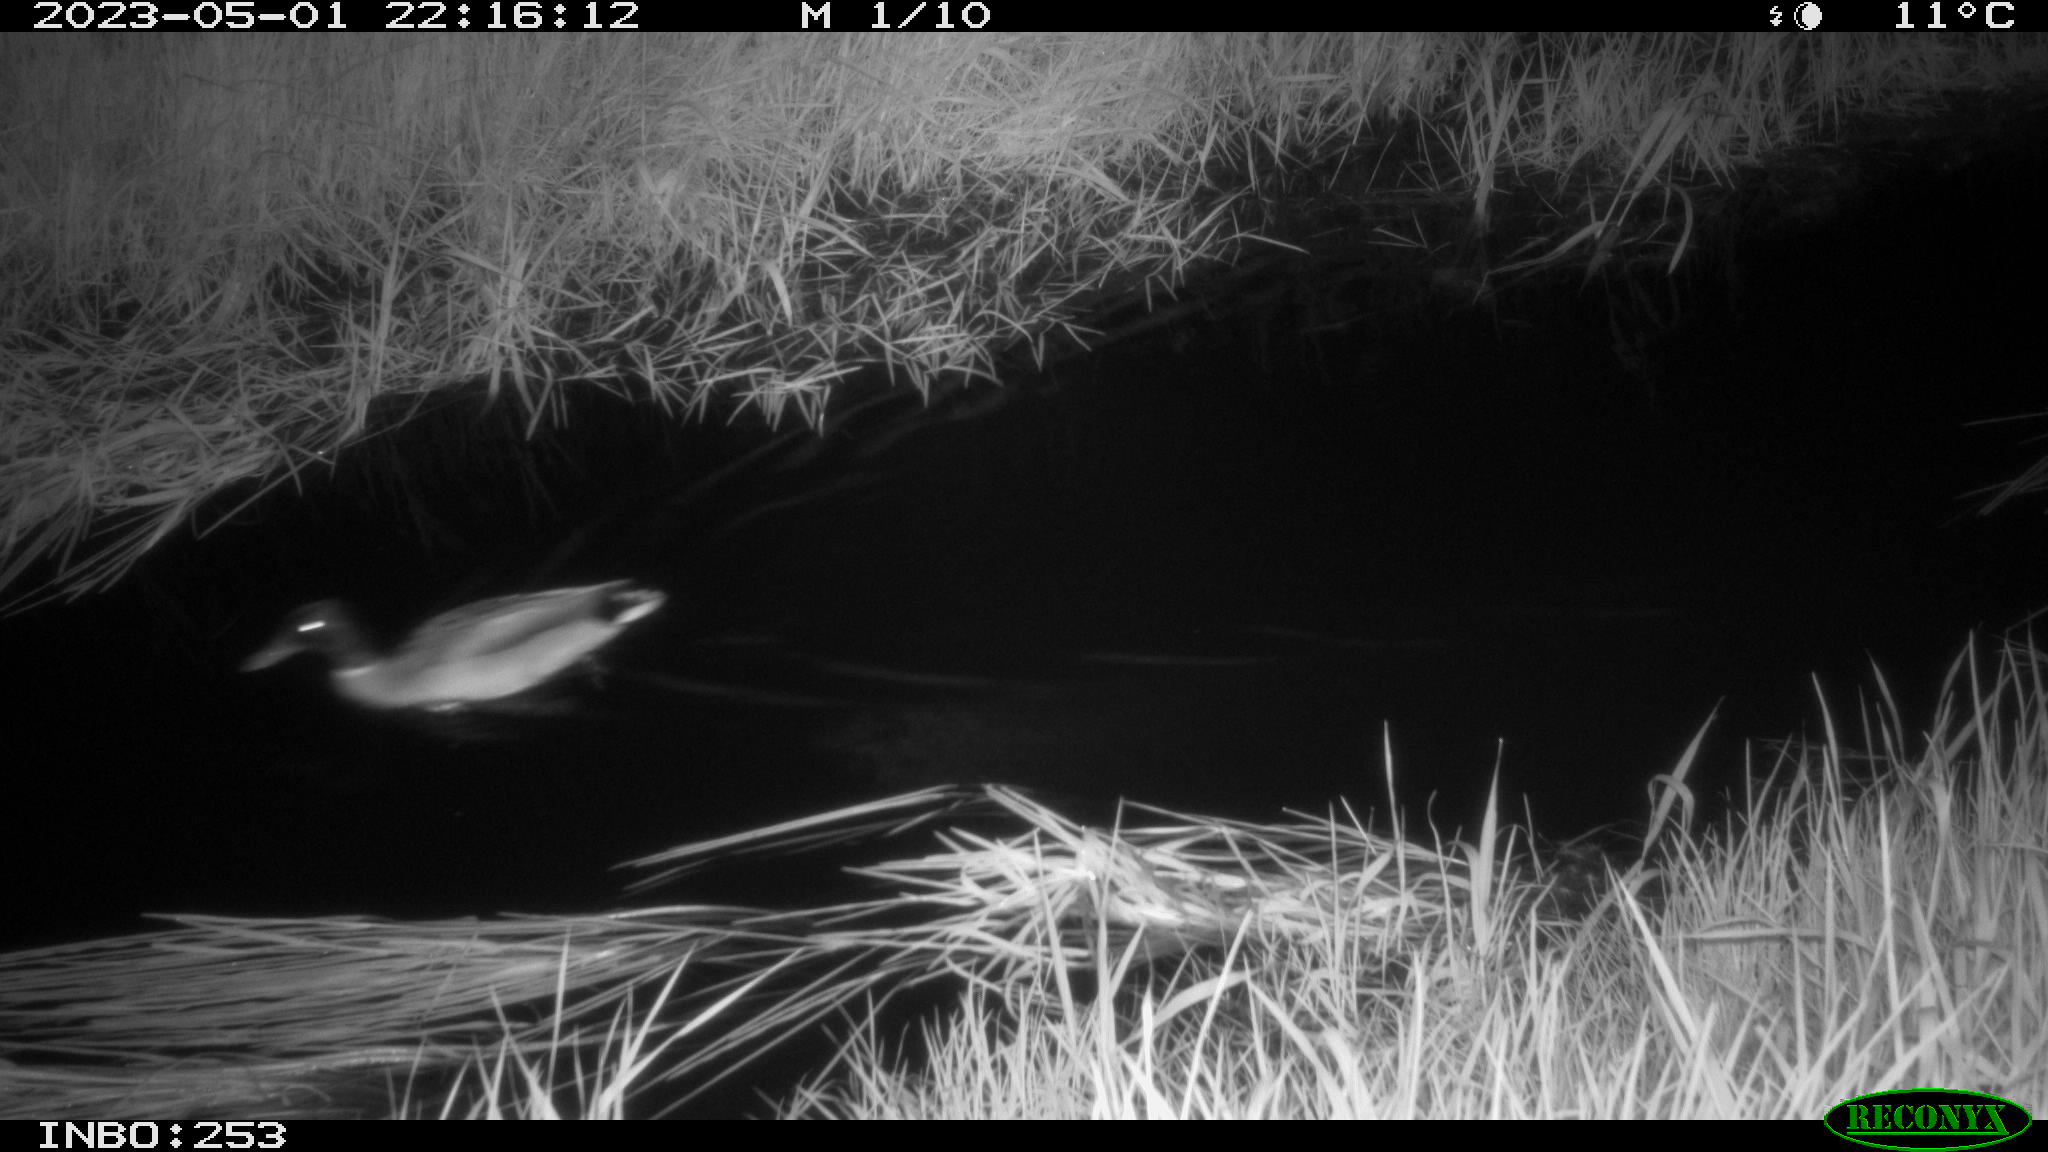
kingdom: Animalia
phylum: Chordata
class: Aves
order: Anseriformes
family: Anatidae
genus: Anas
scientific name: Anas
